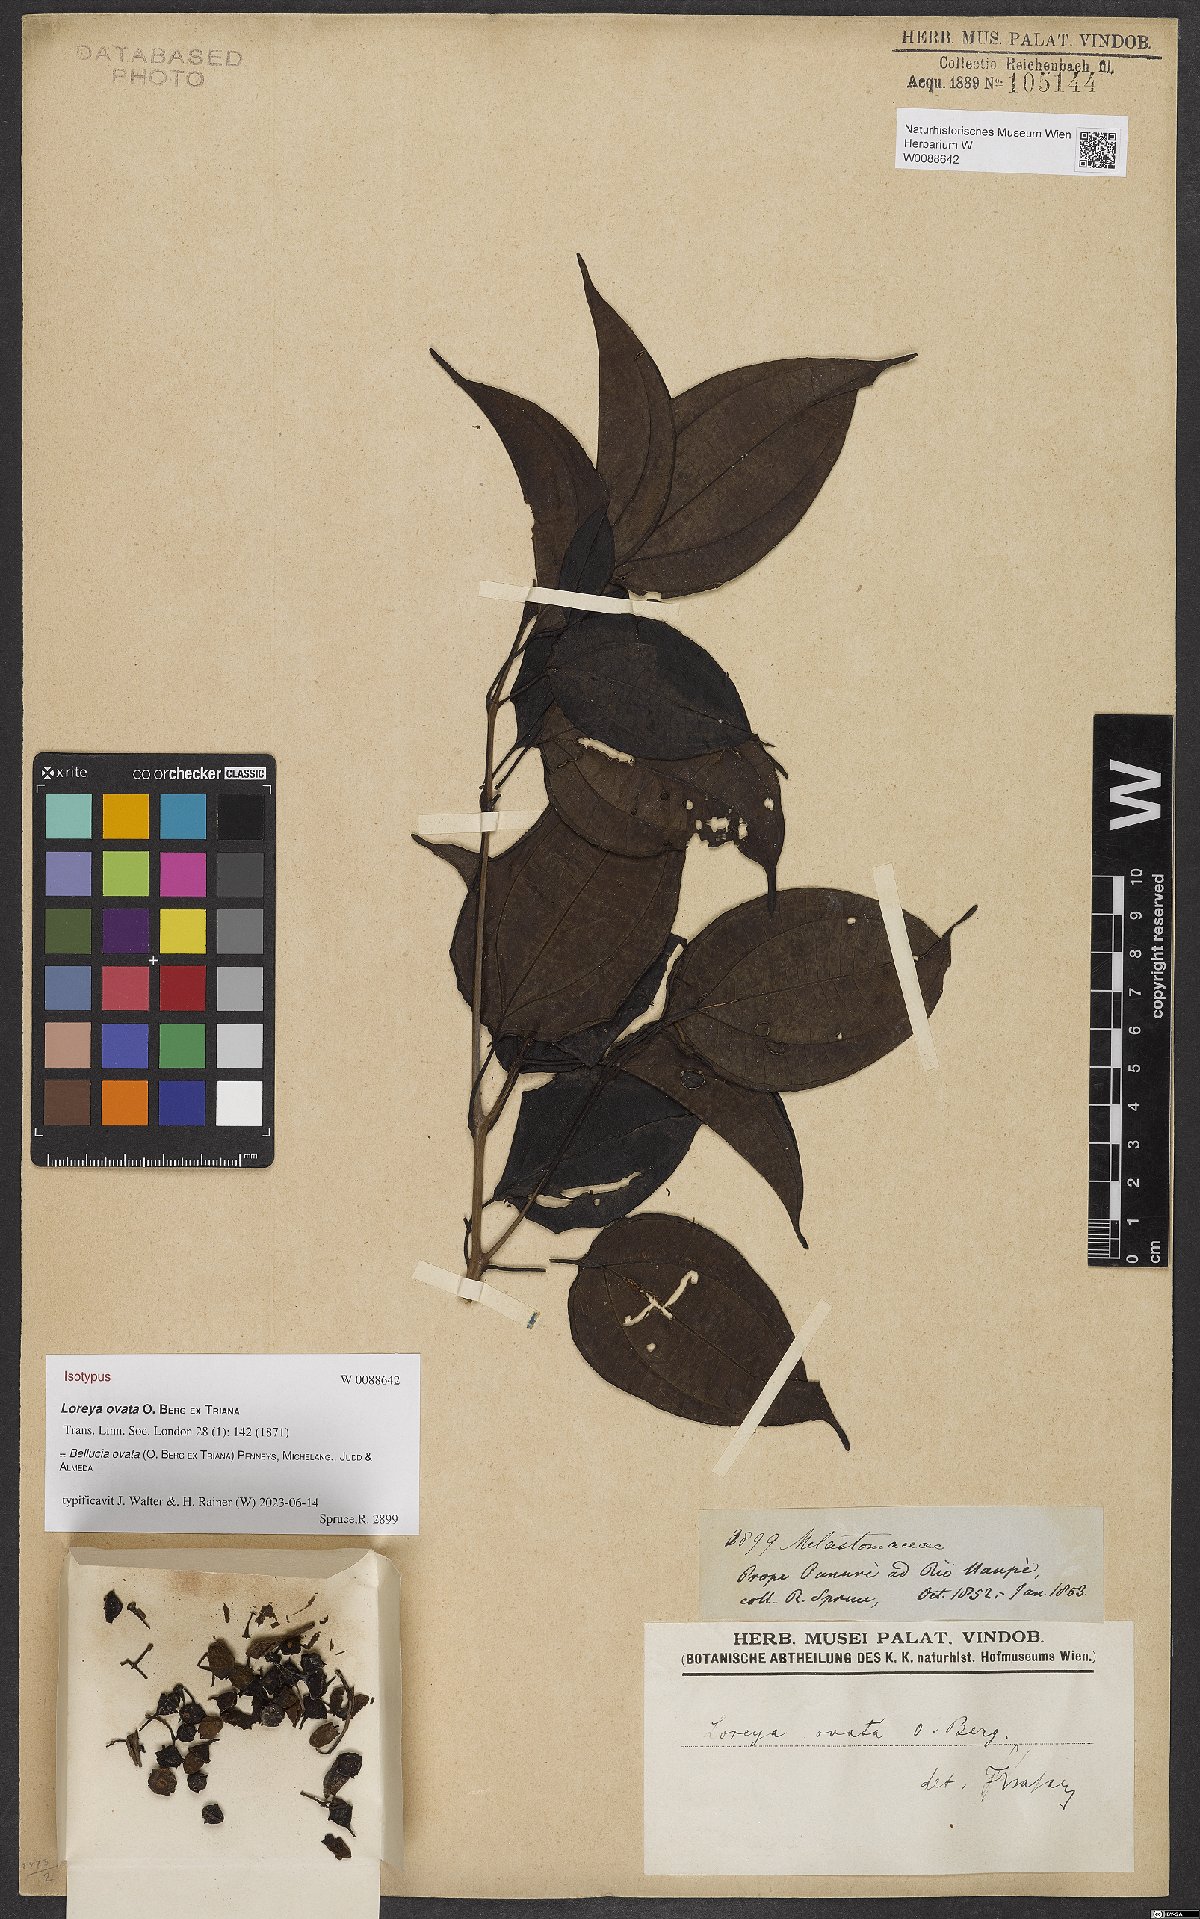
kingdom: Plantae
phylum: Tracheophyta
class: Magnoliopsida
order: Myrtales
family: Melastomataceae
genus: Bellucia
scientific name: Bellucia ovata
